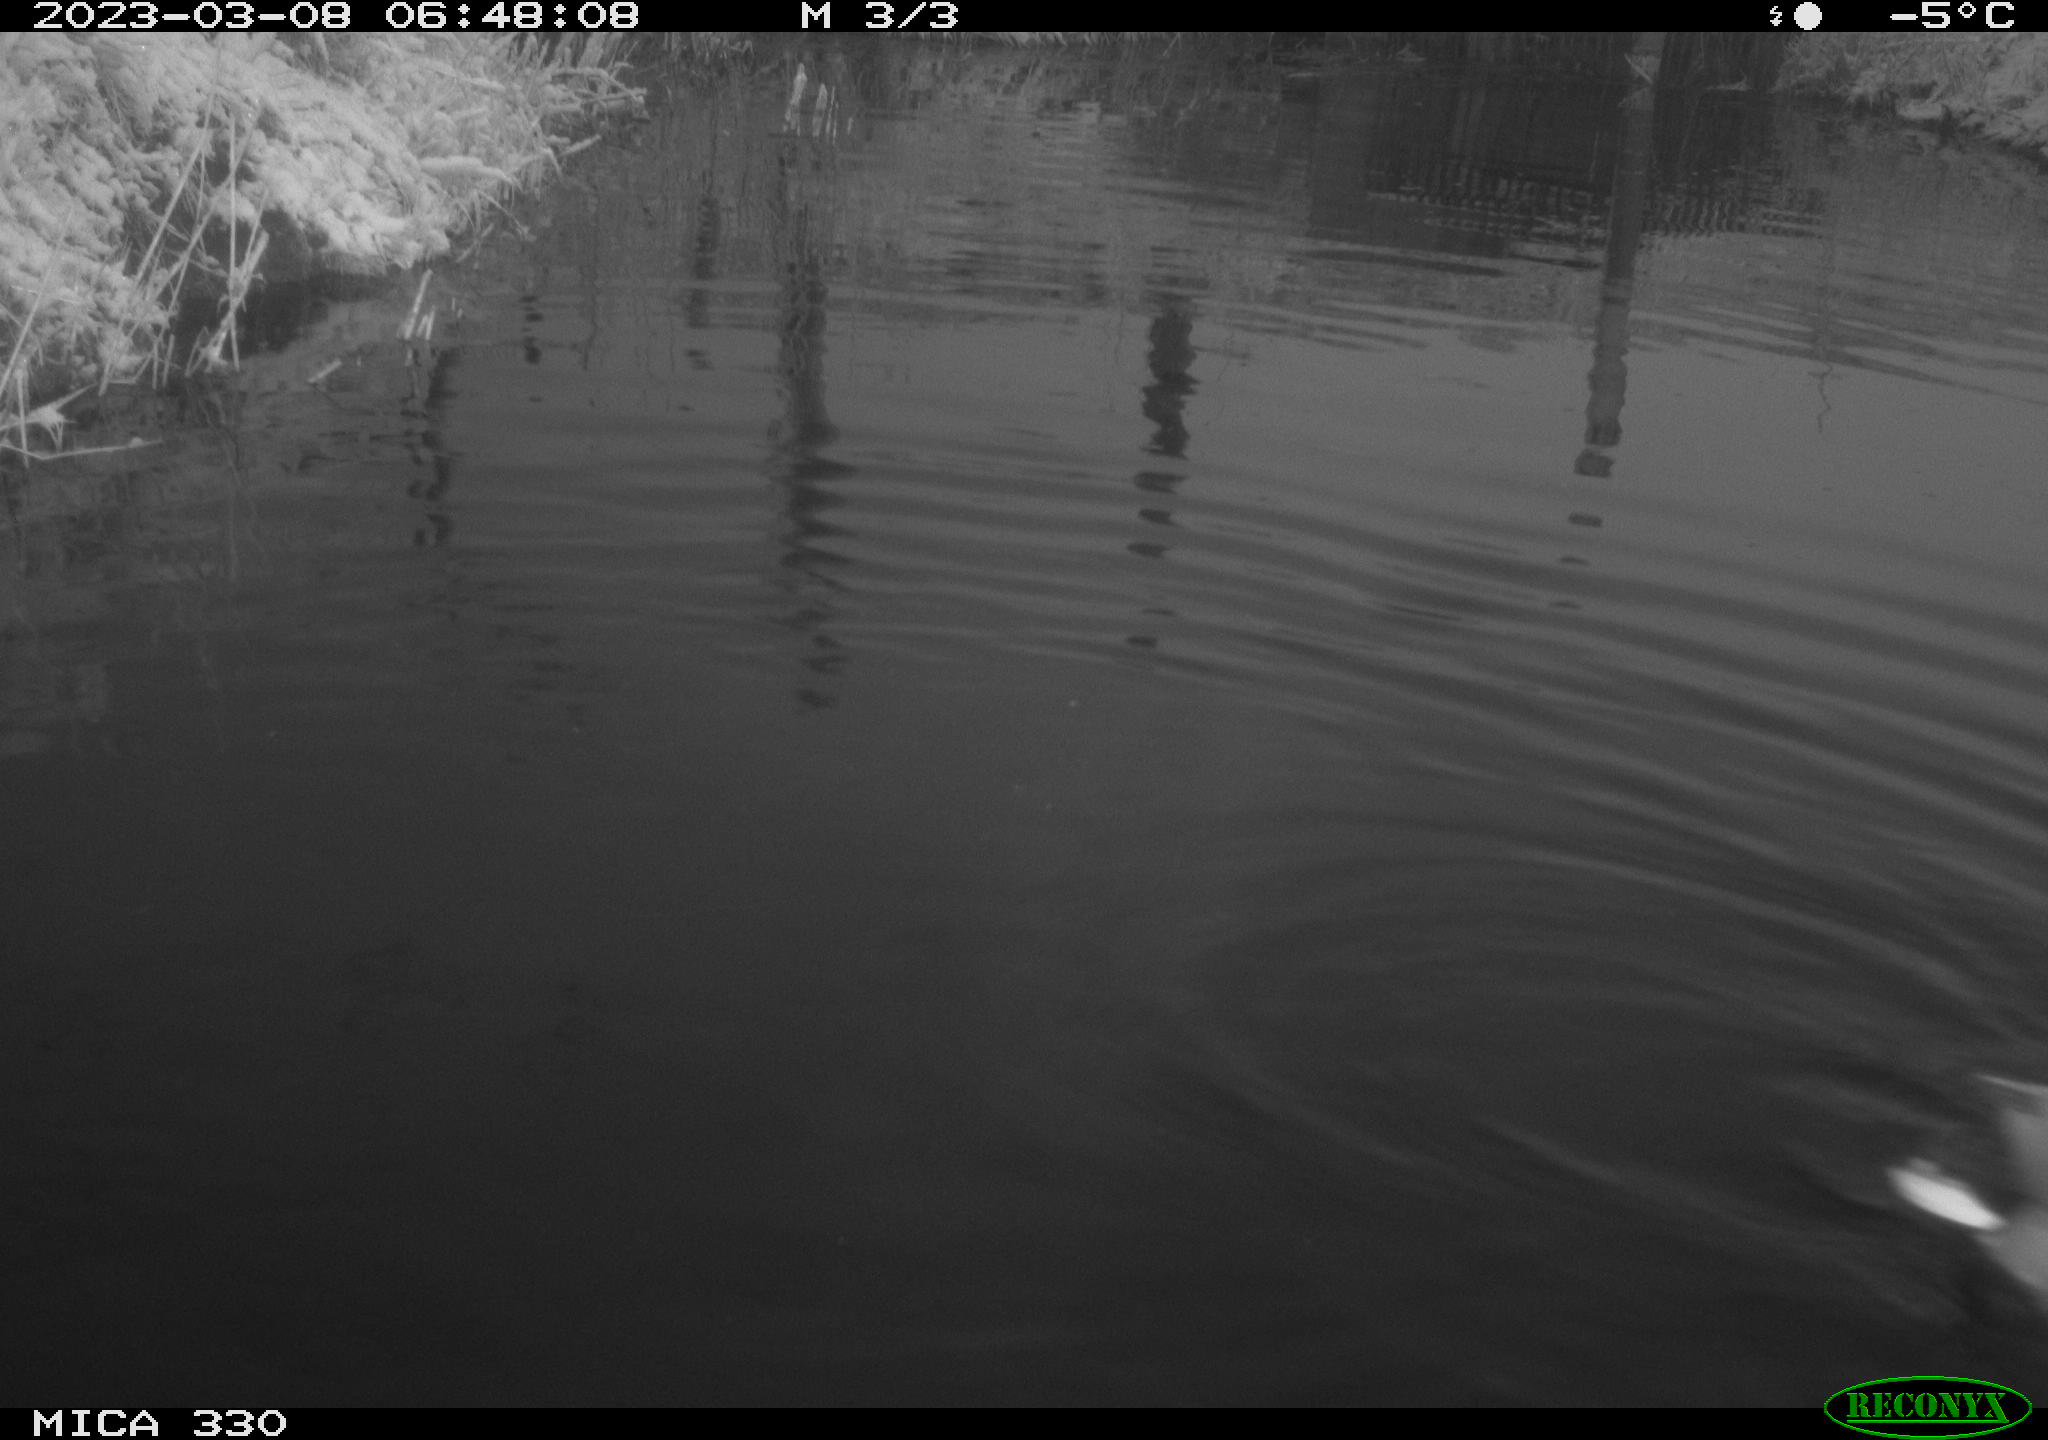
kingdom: Animalia
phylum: Chordata
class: Aves
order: Anseriformes
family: Anatidae
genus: Anas
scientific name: Anas
